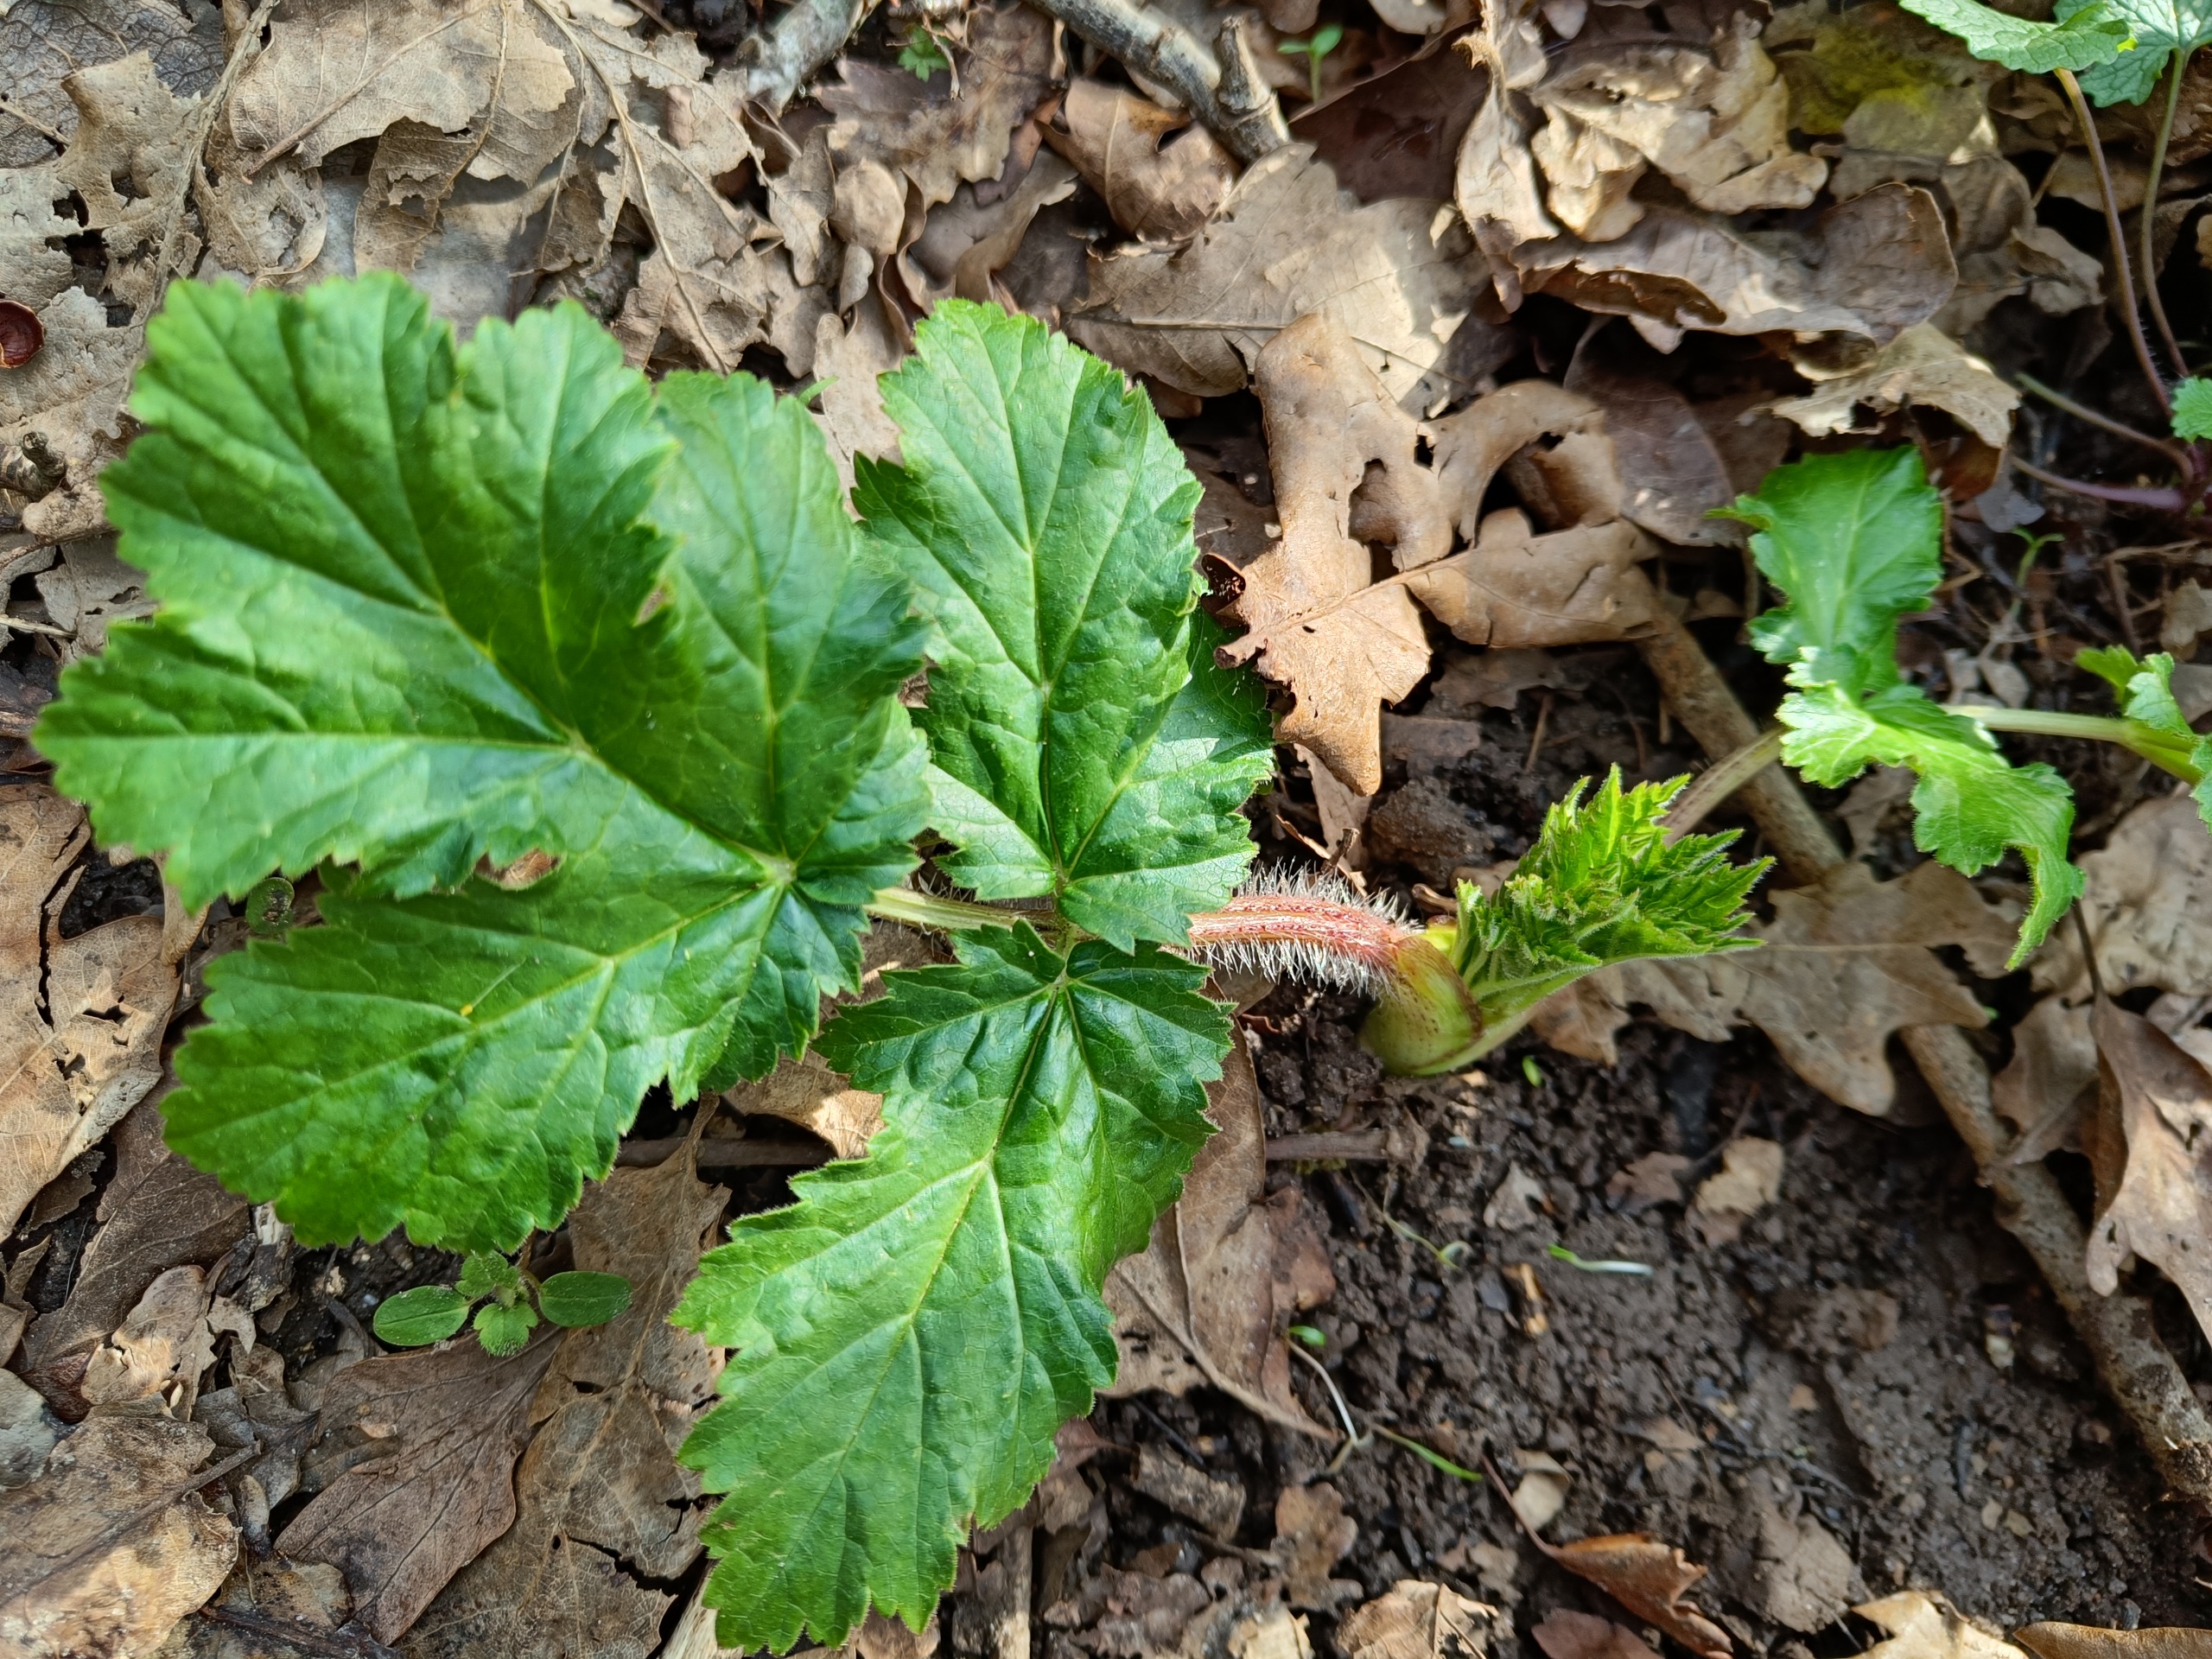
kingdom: Plantae
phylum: Tracheophyta
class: Magnoliopsida
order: Apiales
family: Apiaceae
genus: Heracleum
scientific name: Heracleum mantegazzianum
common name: Kæmpe-bjørneklo
